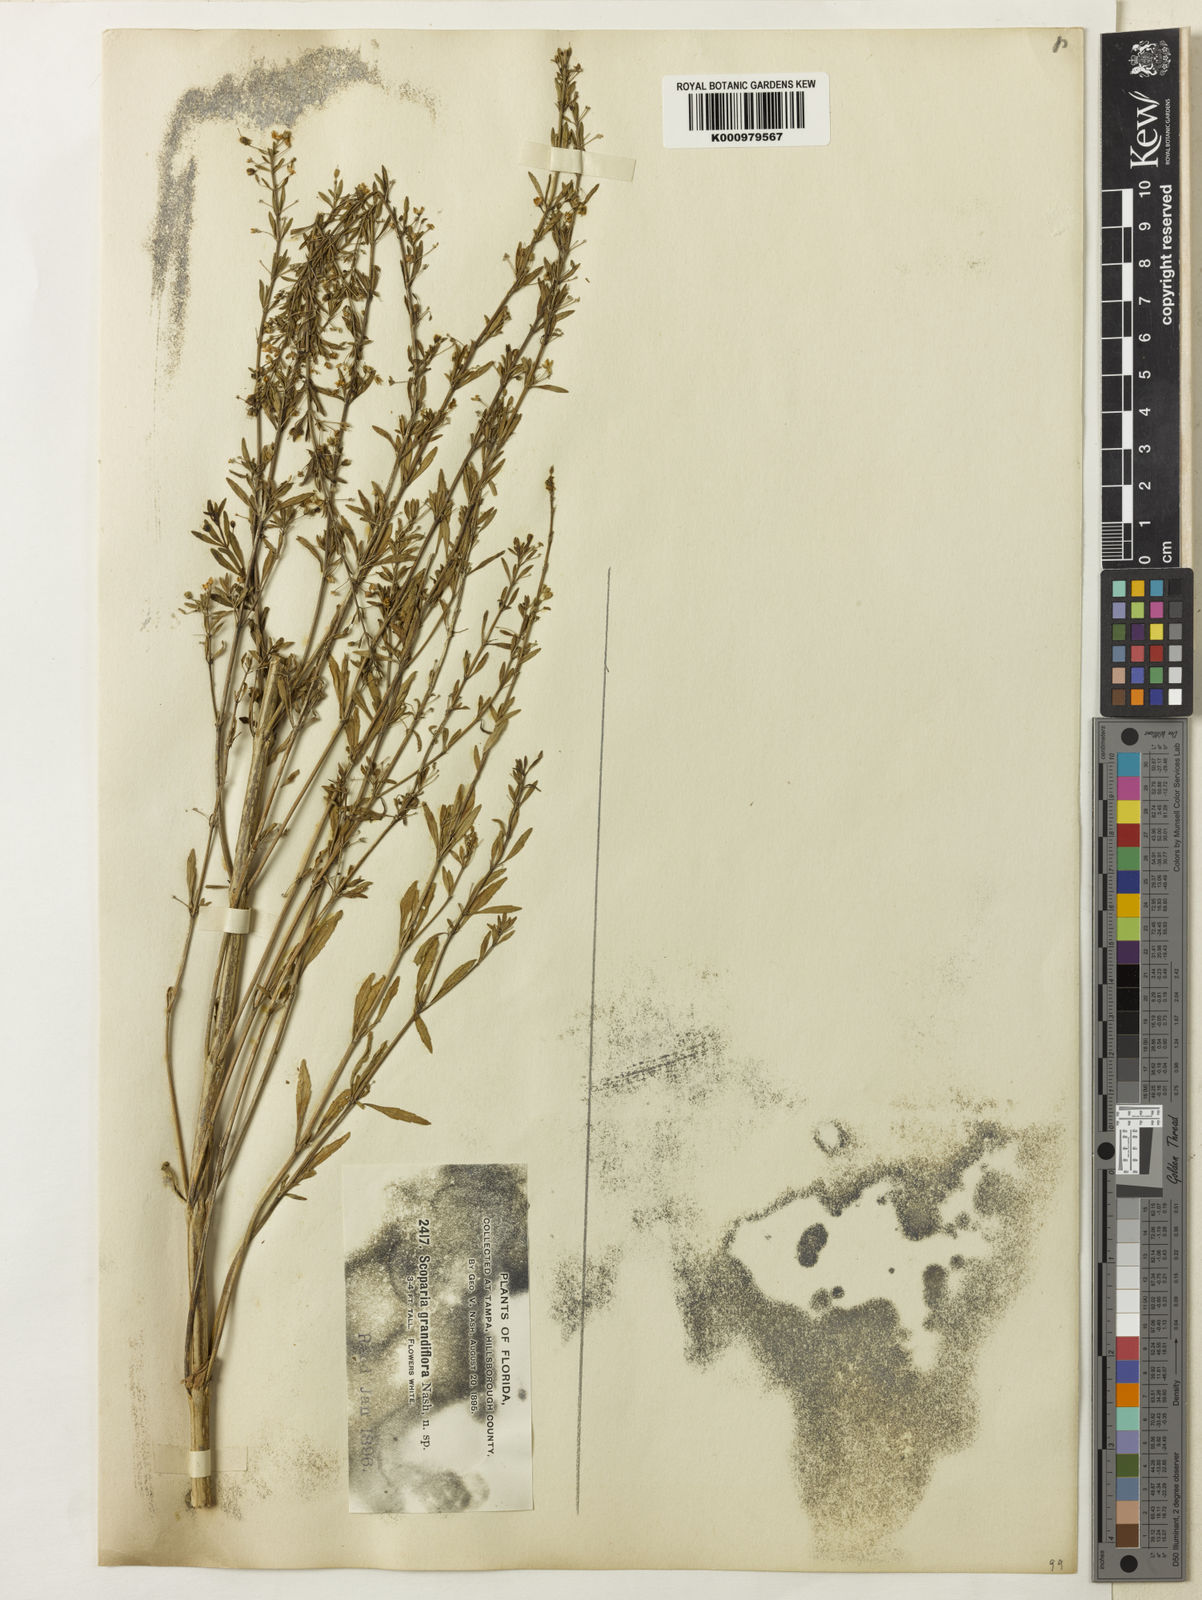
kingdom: Plantae
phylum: Tracheophyta
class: Magnoliopsida
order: Lamiales
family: Plantaginaceae
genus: Scoparia
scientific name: Scoparia dulcis
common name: Scoparia-weed
